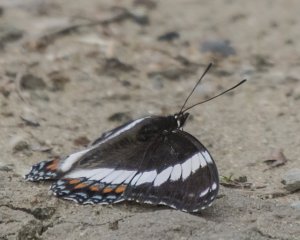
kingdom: Animalia
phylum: Arthropoda
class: Insecta
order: Lepidoptera
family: Nymphalidae
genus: Limenitis
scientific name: Limenitis arthemis
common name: Red-spotted Admiral
